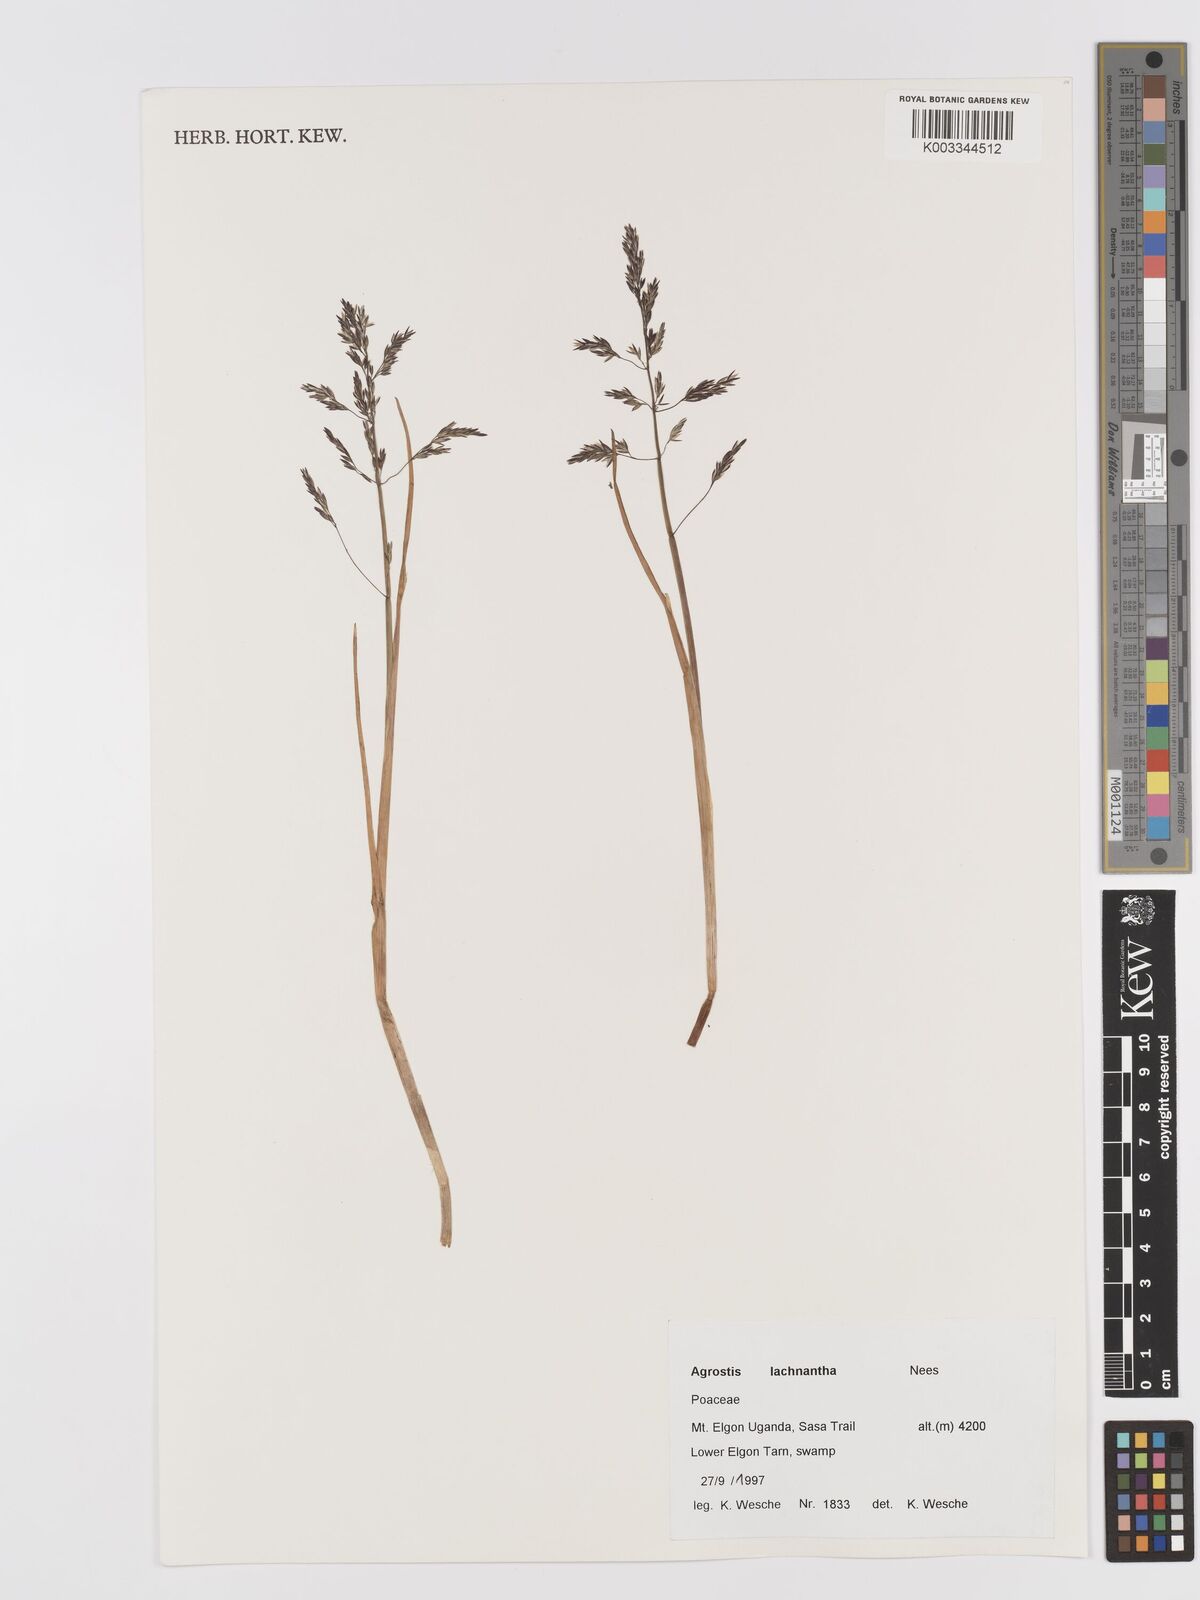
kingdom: Plantae
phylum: Tracheophyta
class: Liliopsida
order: Poales
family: Poaceae
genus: Lachnagrostis
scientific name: Lachnagrostis lachnantha
